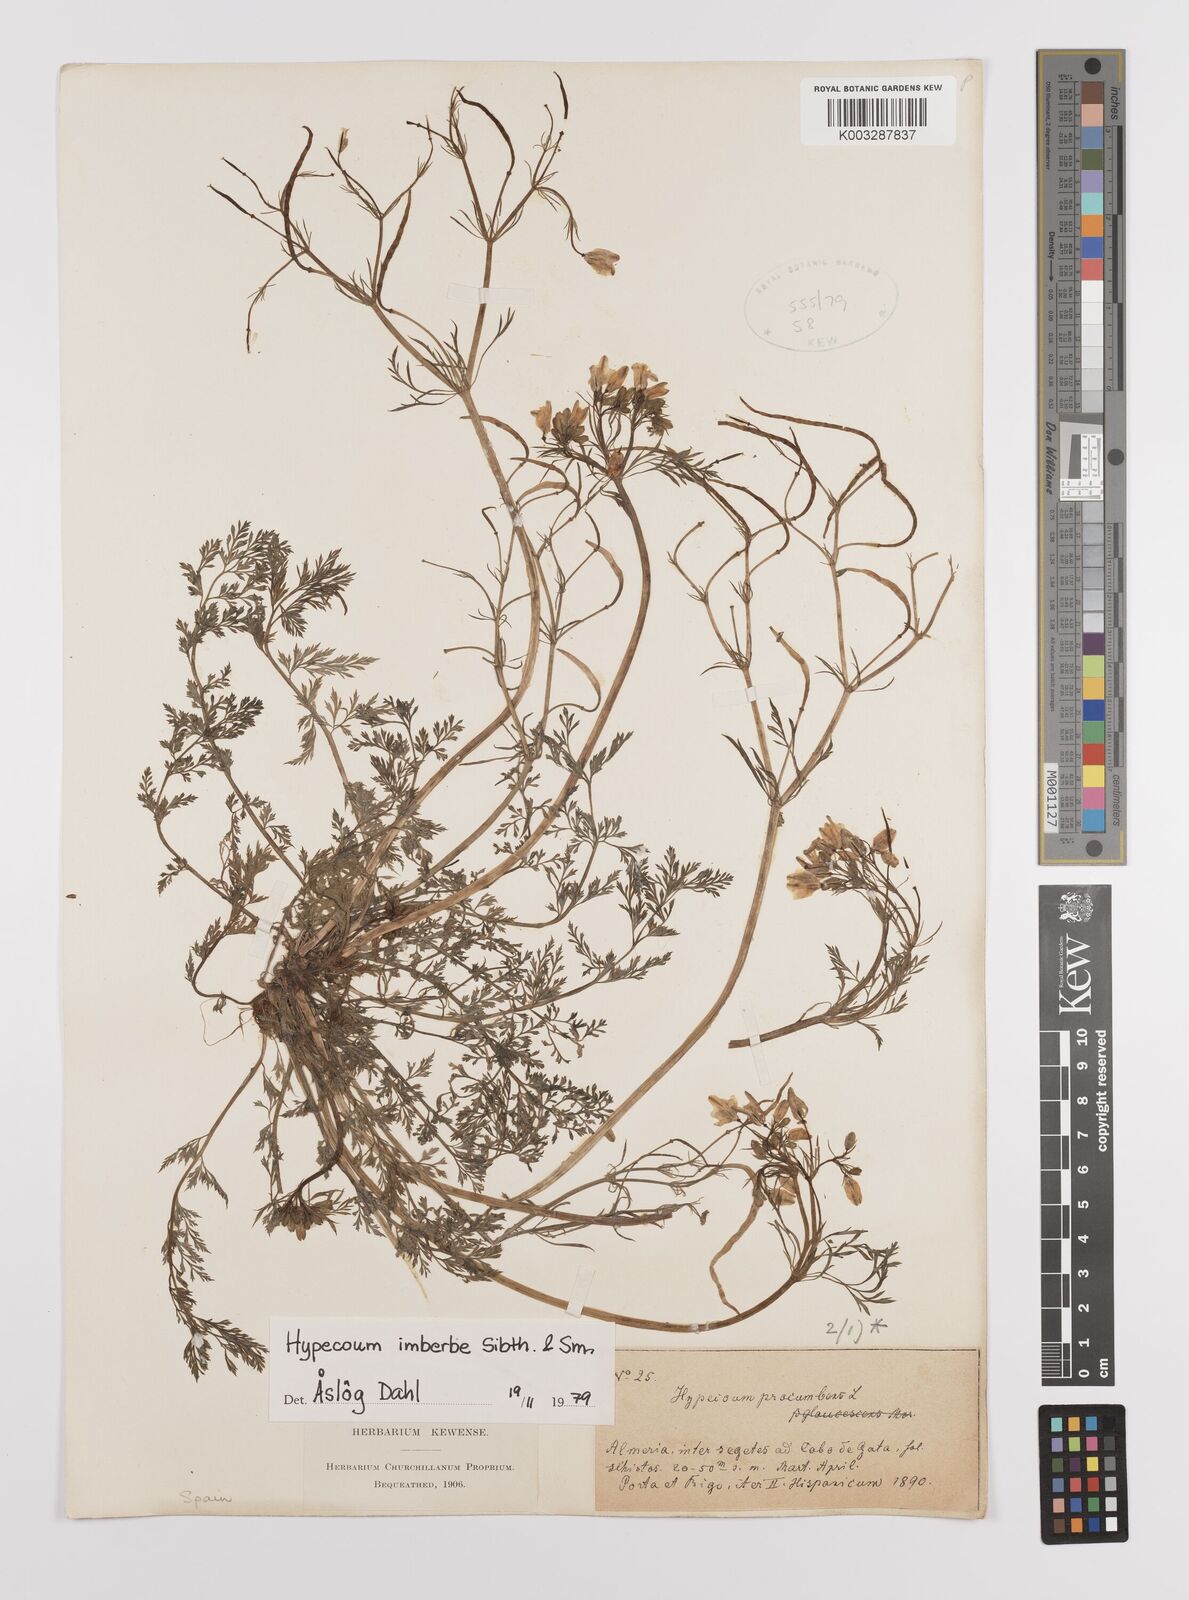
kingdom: Plantae
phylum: Tracheophyta
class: Magnoliopsida
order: Ranunculales
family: Papaveraceae
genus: Hypecoum
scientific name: Hypecoum imberbe
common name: Sicklefruit hypecoum
